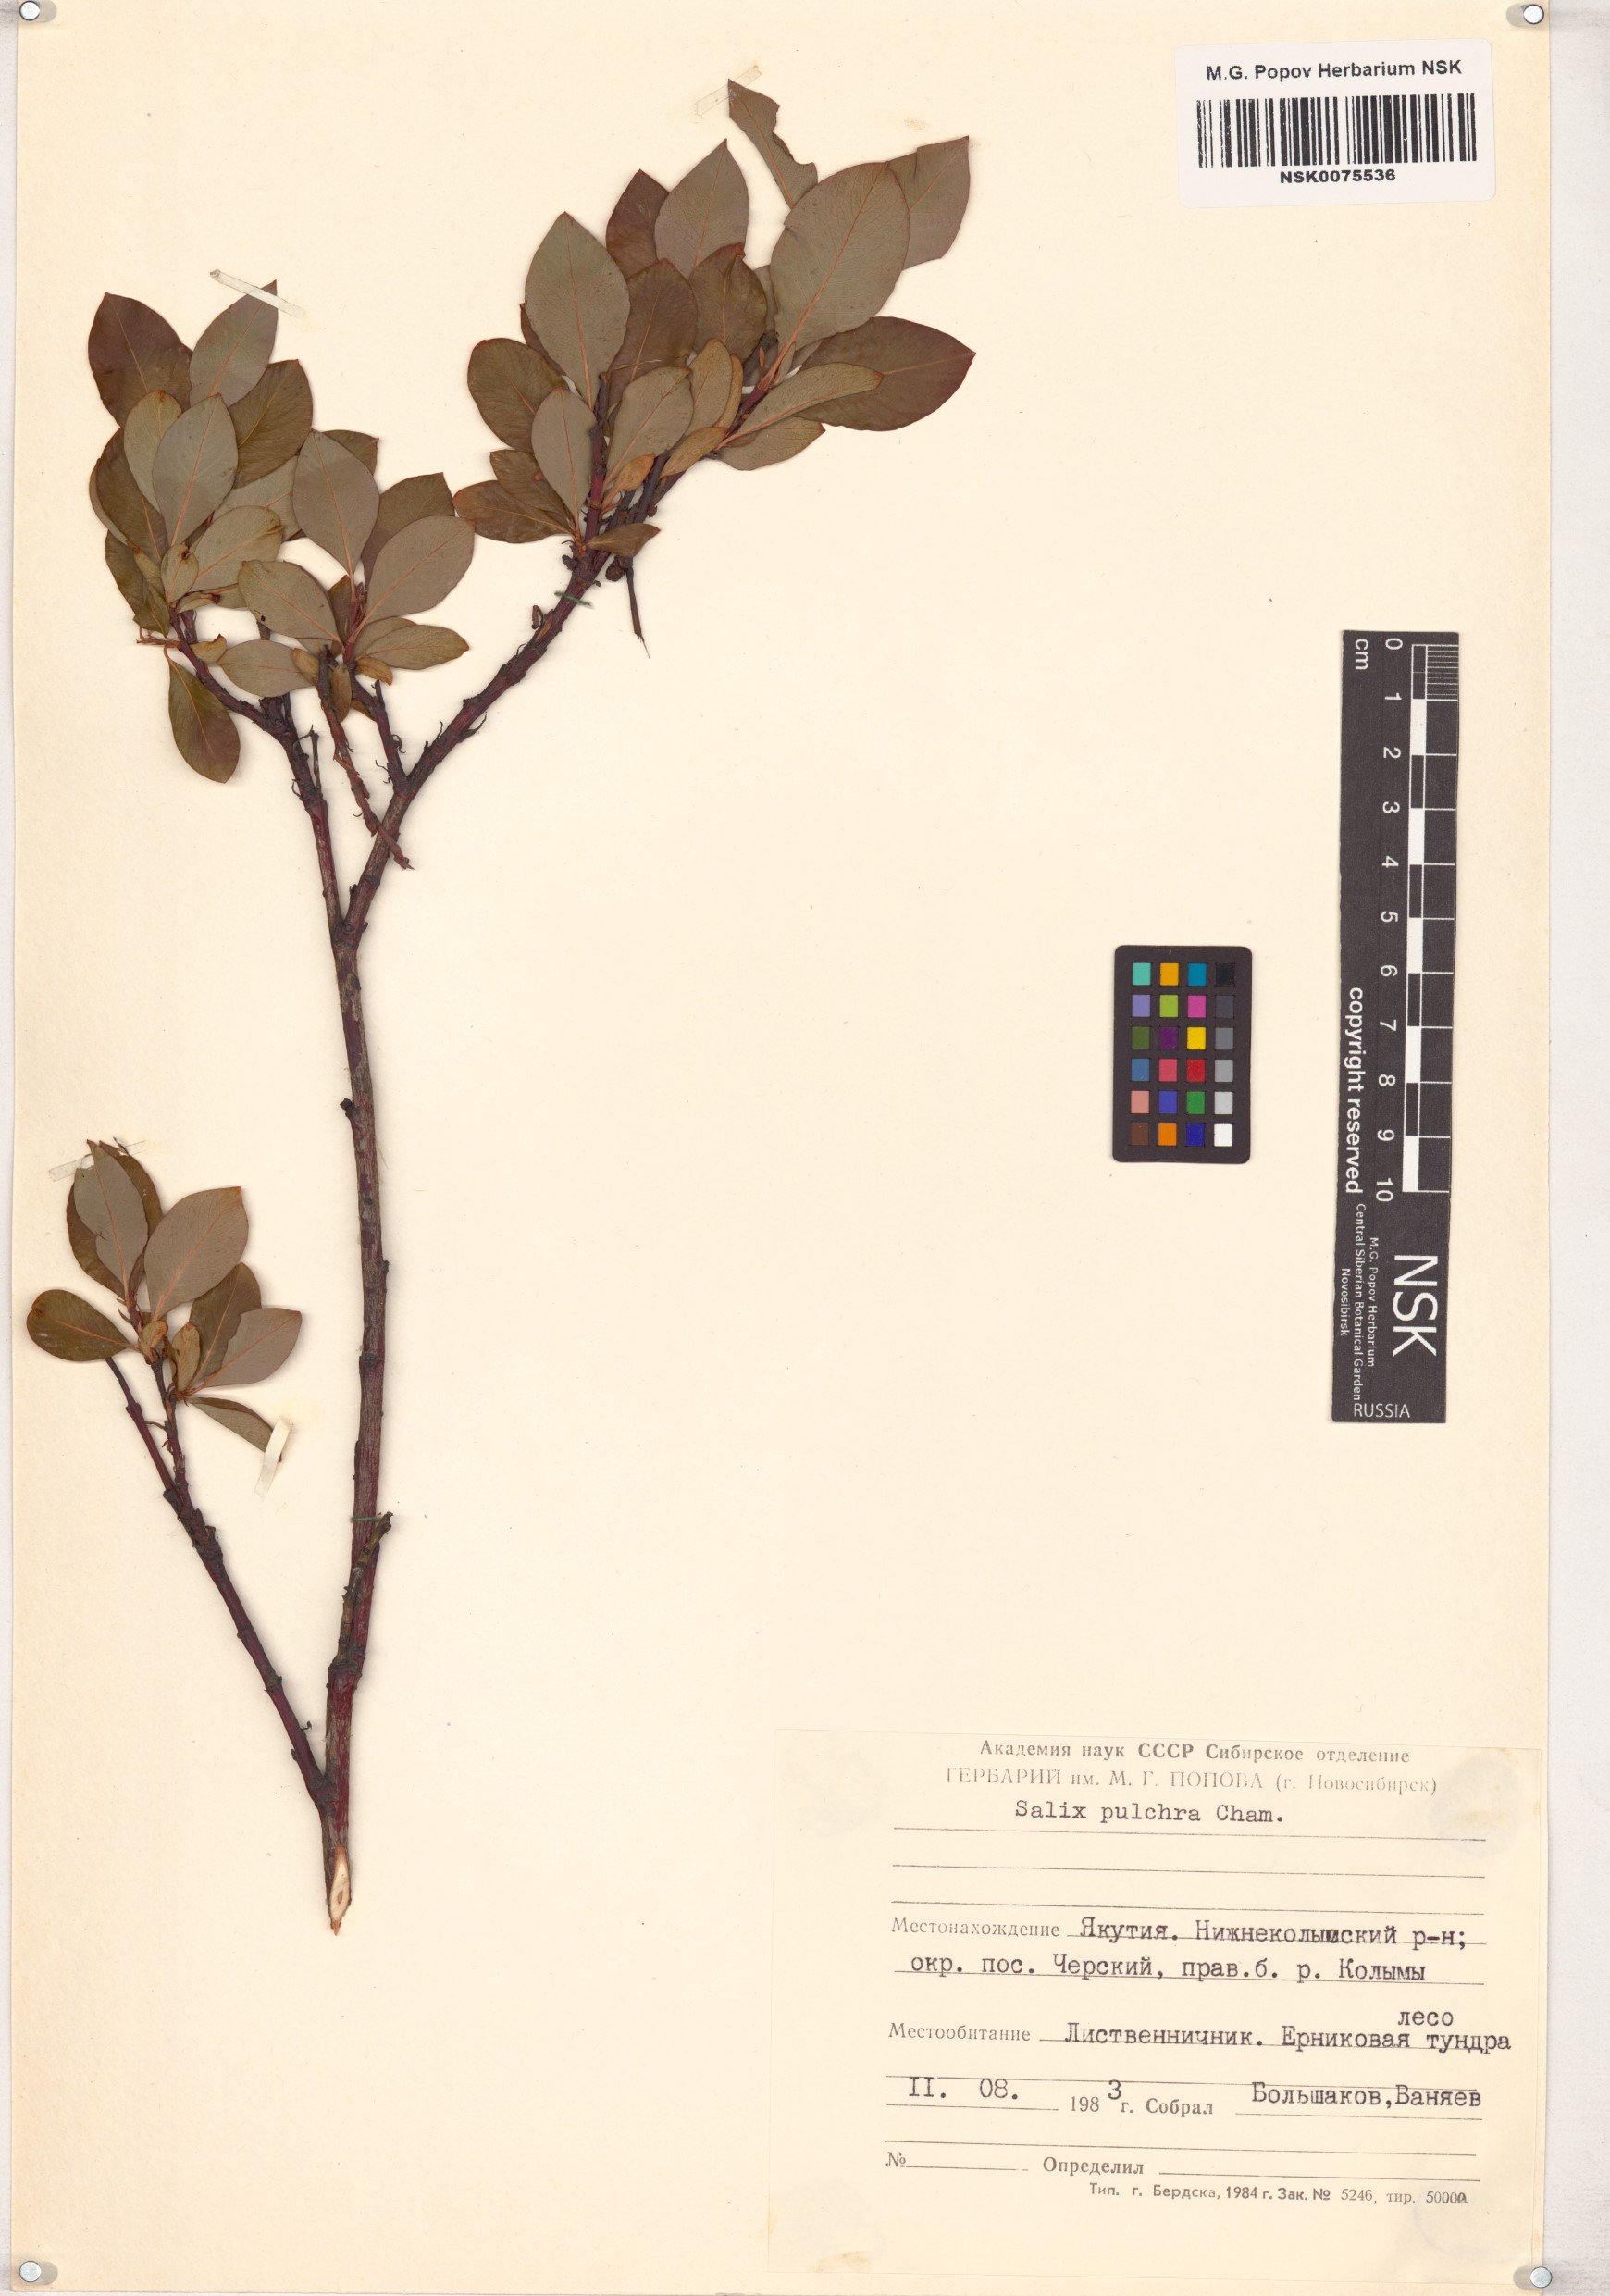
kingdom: Plantae
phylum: Tracheophyta
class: Magnoliopsida
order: Malpighiales
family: Salicaceae
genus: Salix
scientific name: Salix pulchra
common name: Diamond-leaved willow
